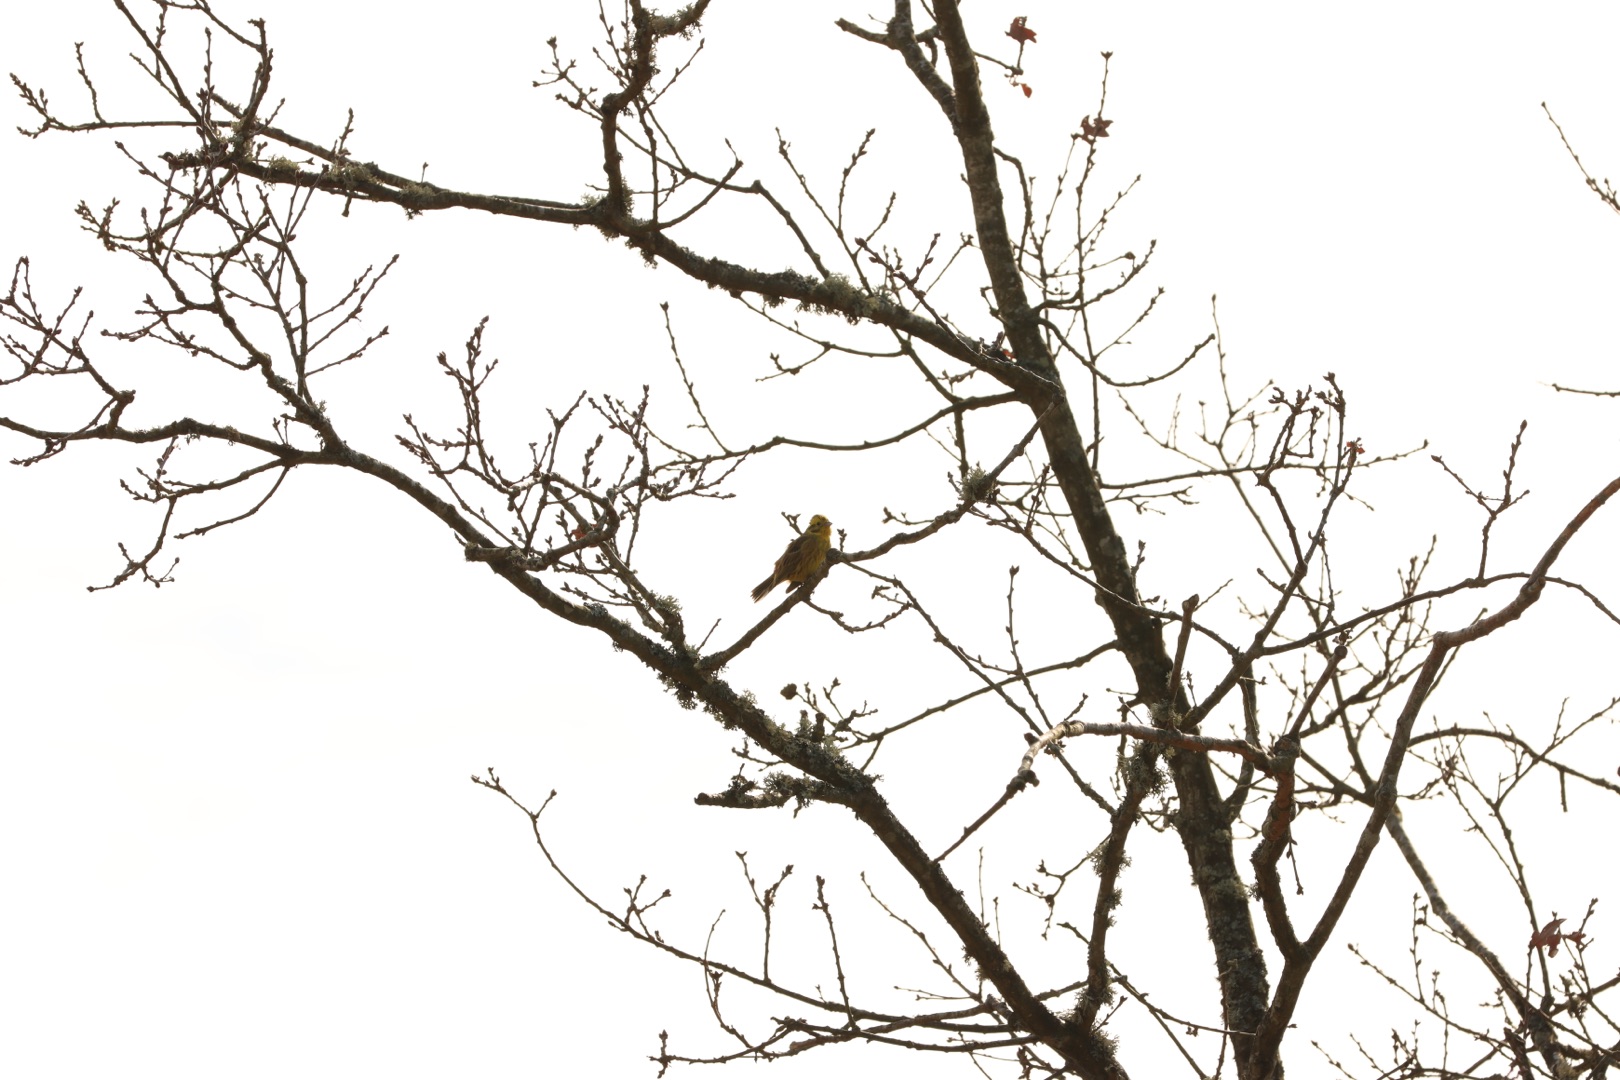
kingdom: Animalia
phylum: Chordata
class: Aves
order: Passeriformes
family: Emberizidae
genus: Emberiza
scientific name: Emberiza citrinella
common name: Gulspurv
